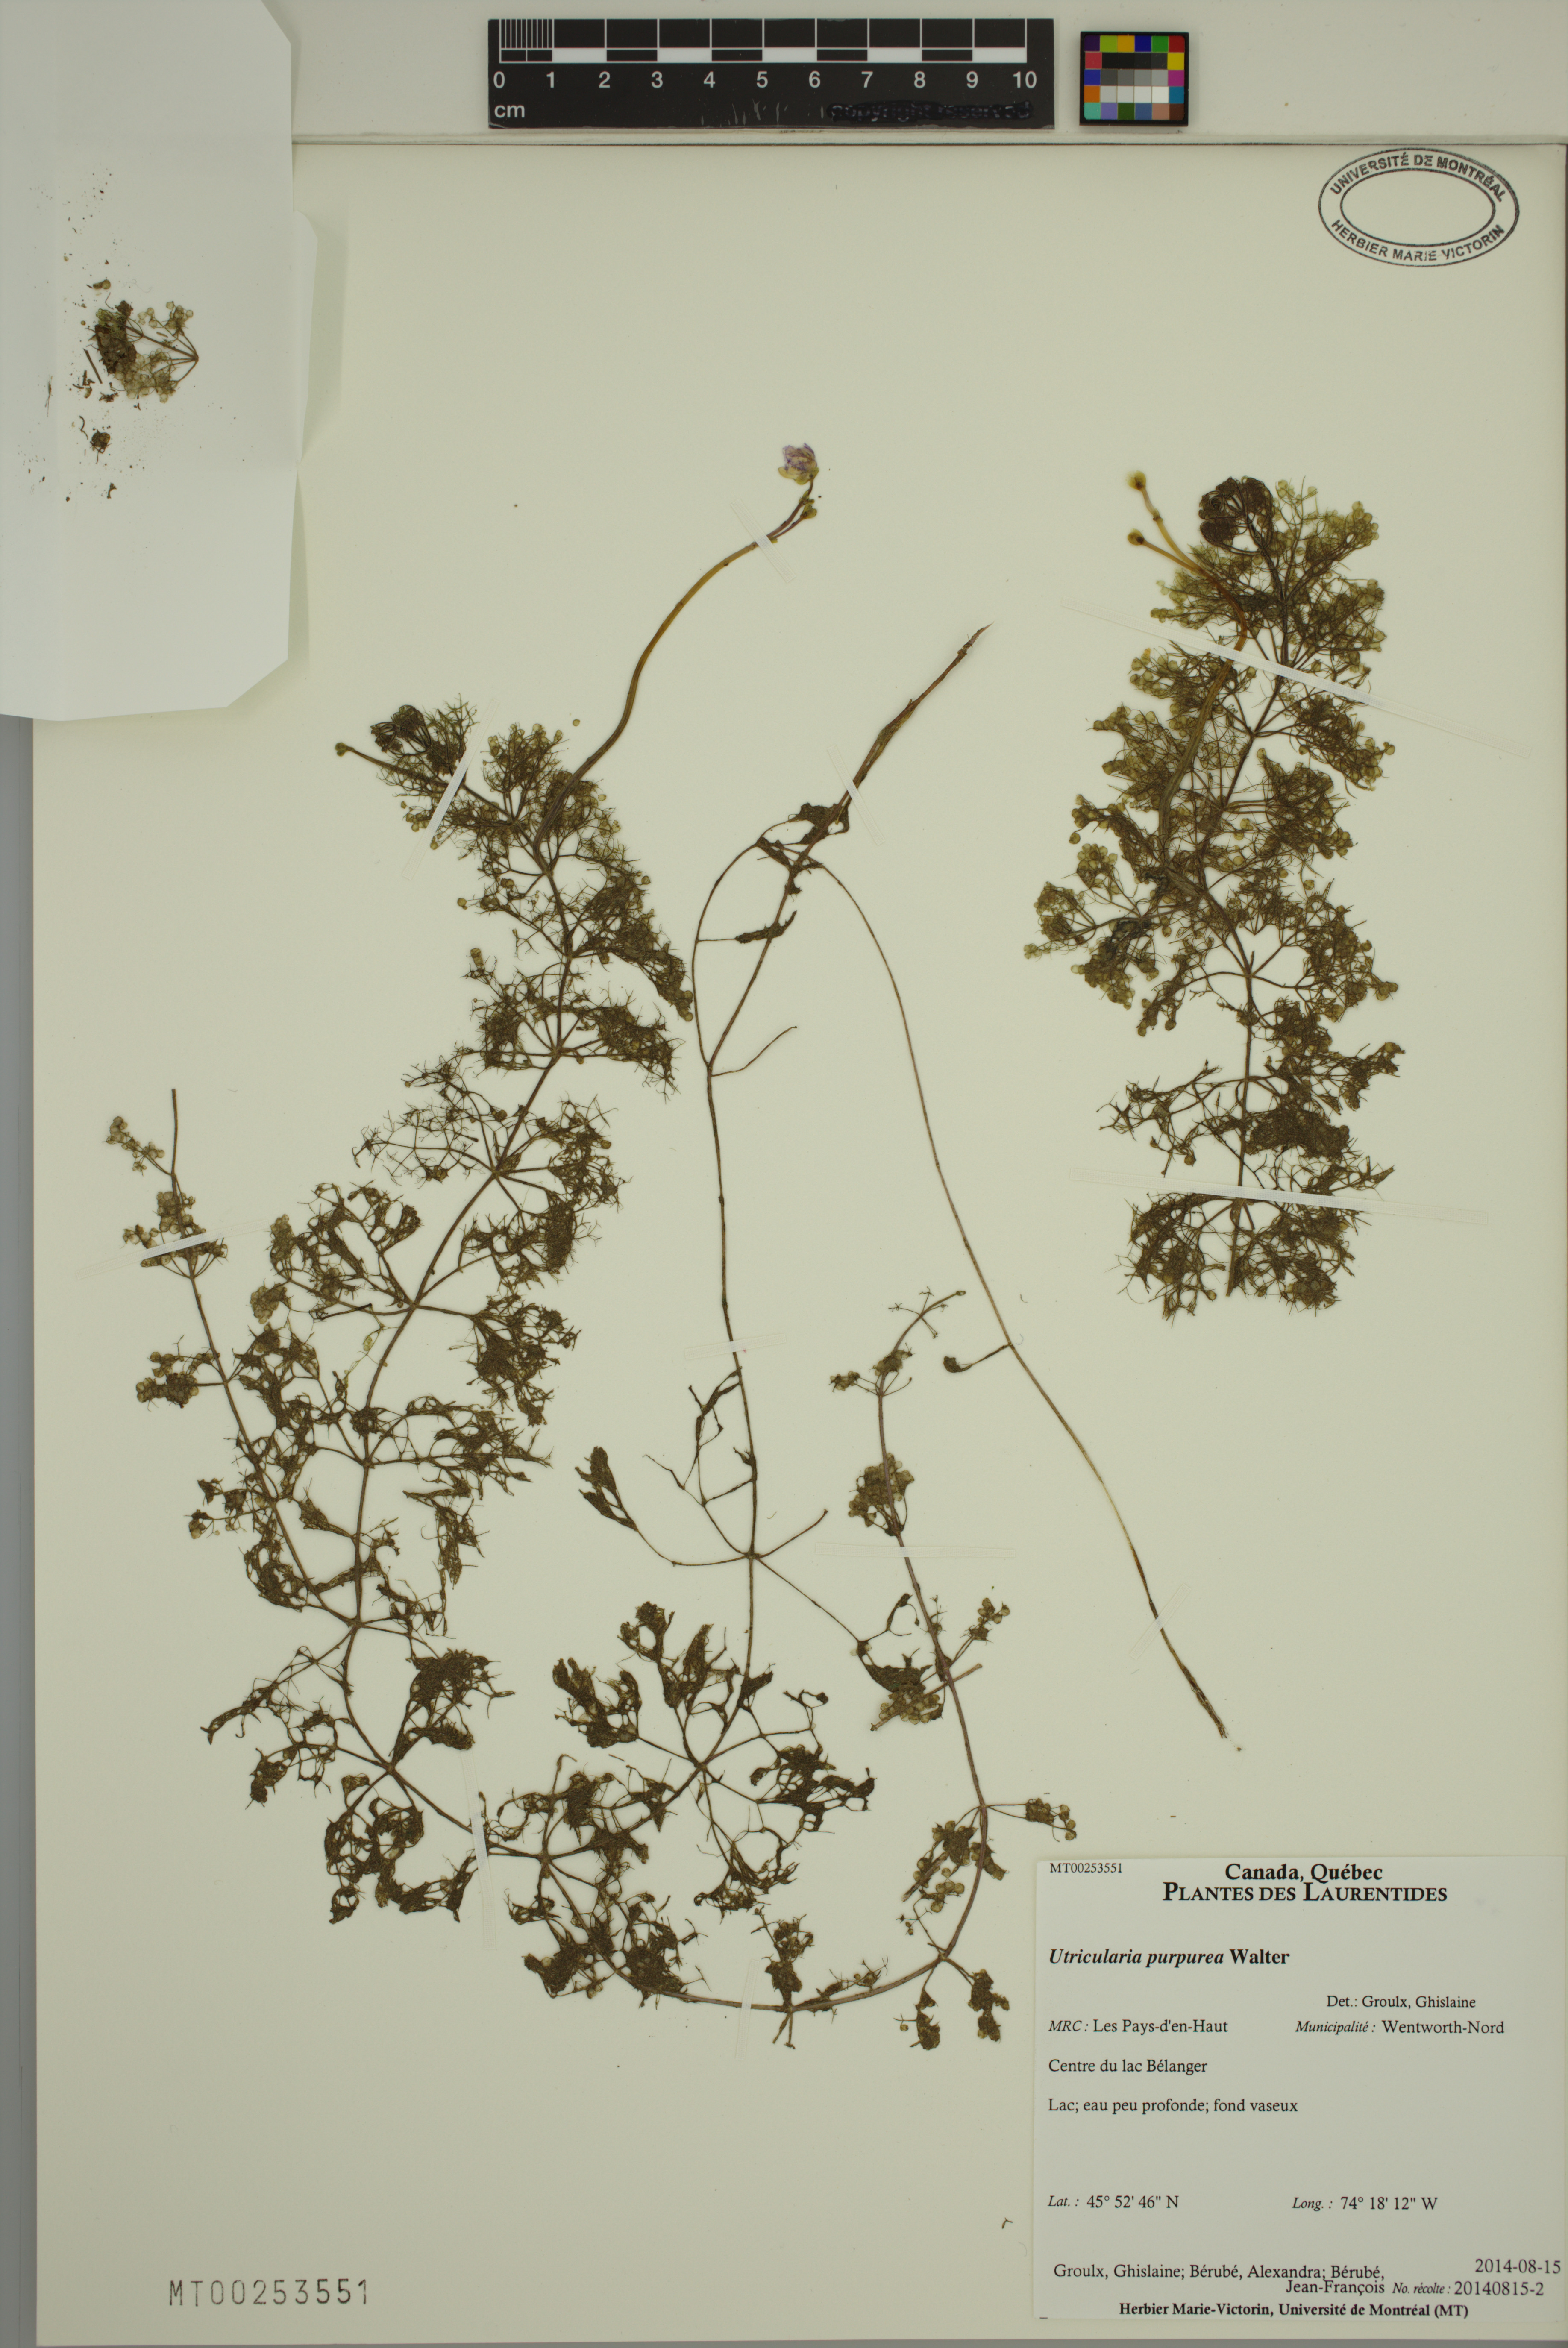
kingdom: Plantae
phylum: Tracheophyta
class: Magnoliopsida
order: Lamiales
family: Lentibulariaceae
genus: Utricularia
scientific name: Utricularia purpurea
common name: Eastern purple bladderwort
